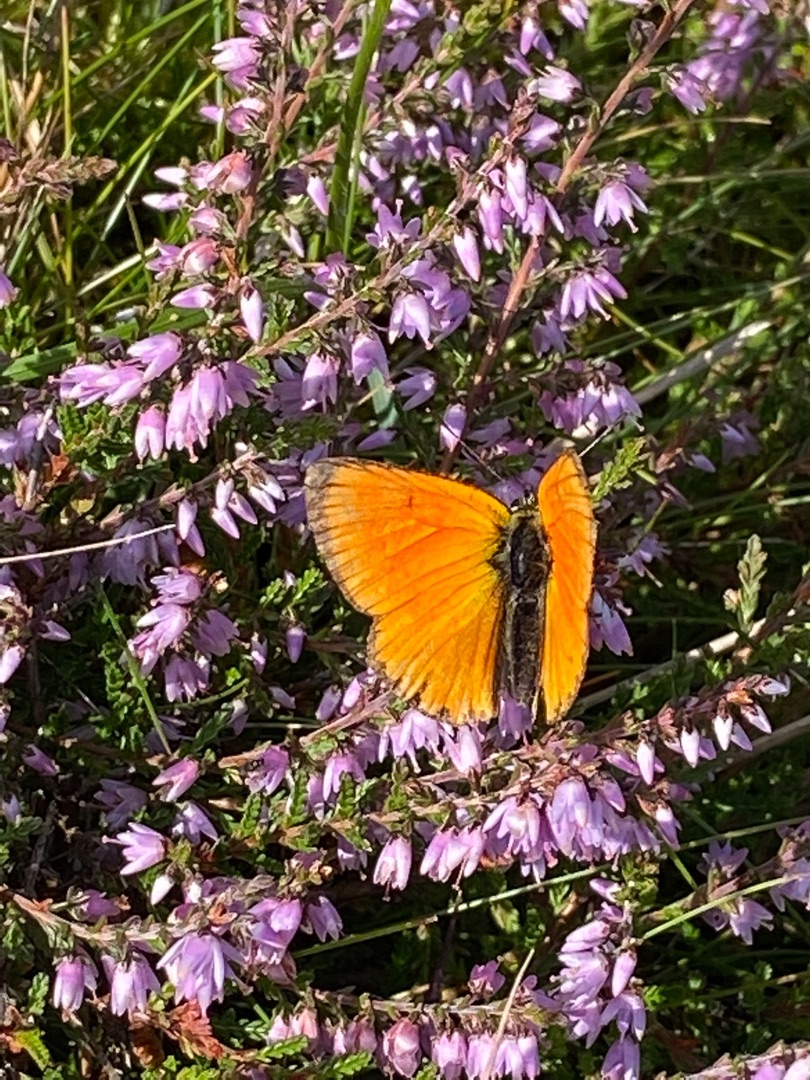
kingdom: Animalia
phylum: Arthropoda
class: Insecta
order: Lepidoptera
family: Lycaenidae
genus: Lycaena
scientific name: Lycaena virgaureae
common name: Dukatsommerfugl
